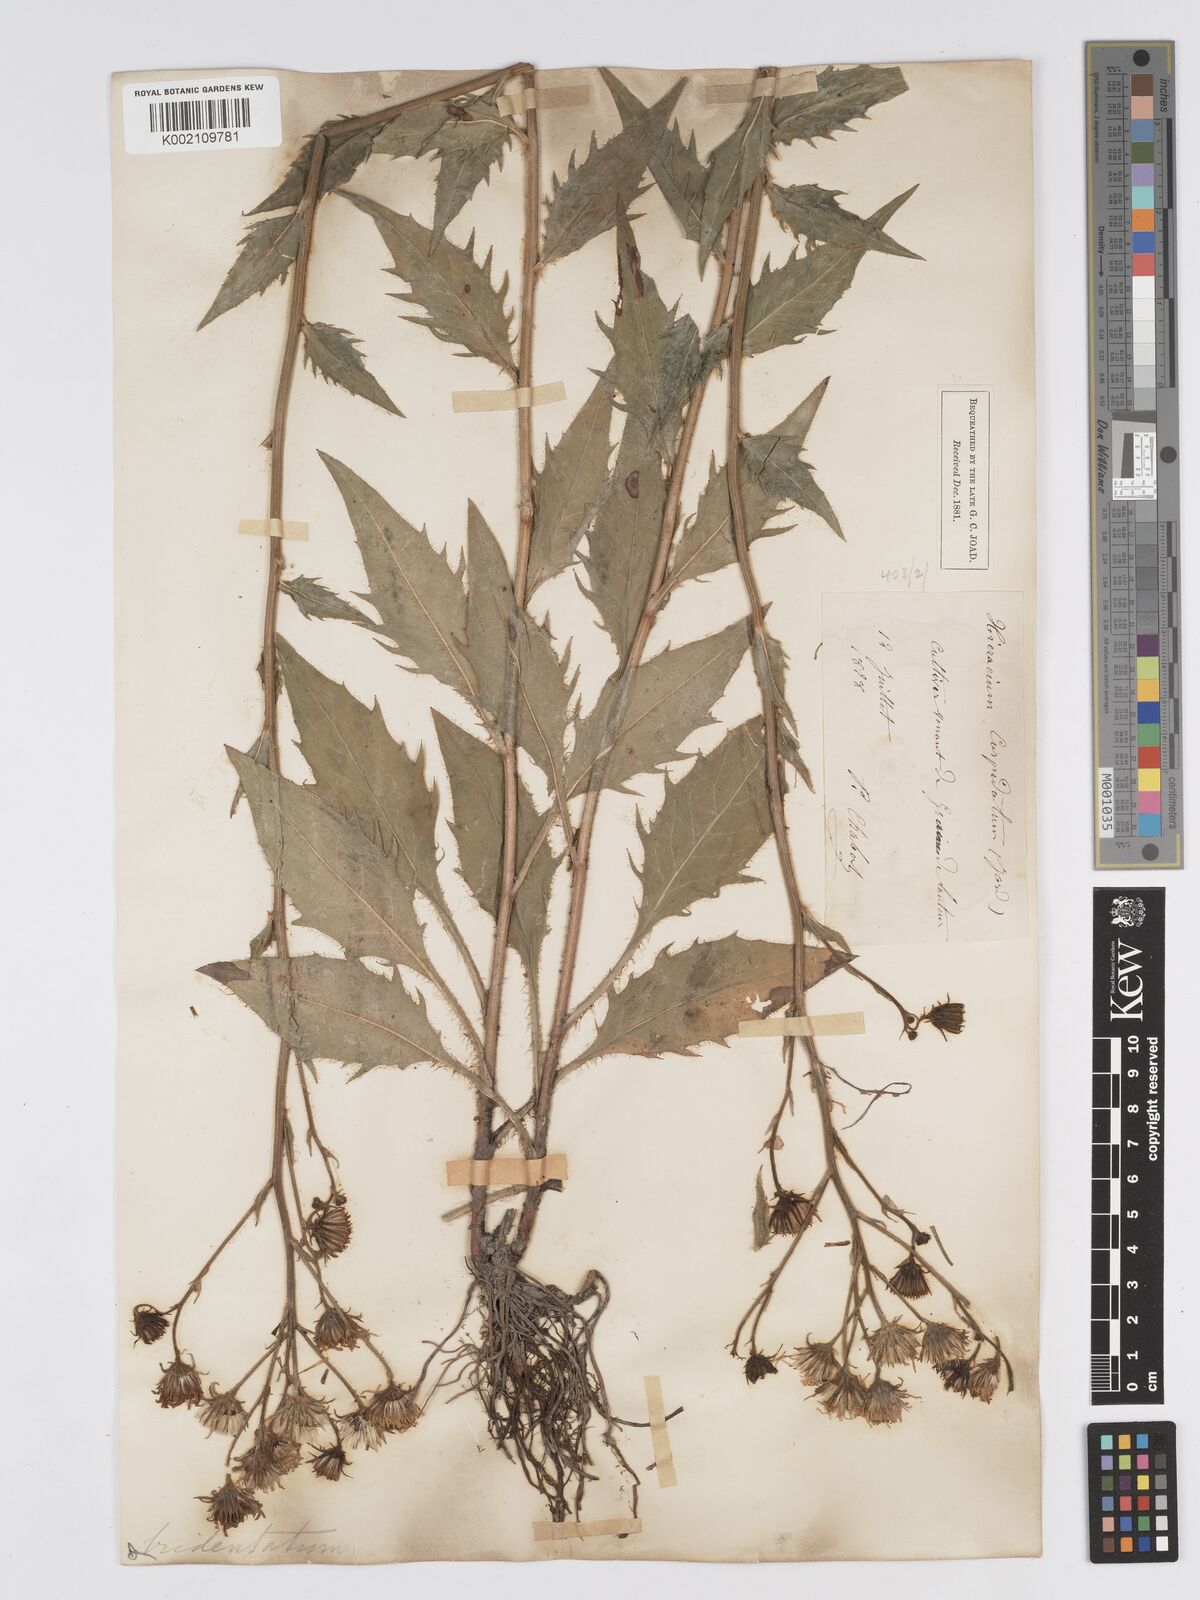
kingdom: Plantae
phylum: Tracheophyta
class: Magnoliopsida
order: Asterales
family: Asteraceae
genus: Hieracium
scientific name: Hieracium australe
